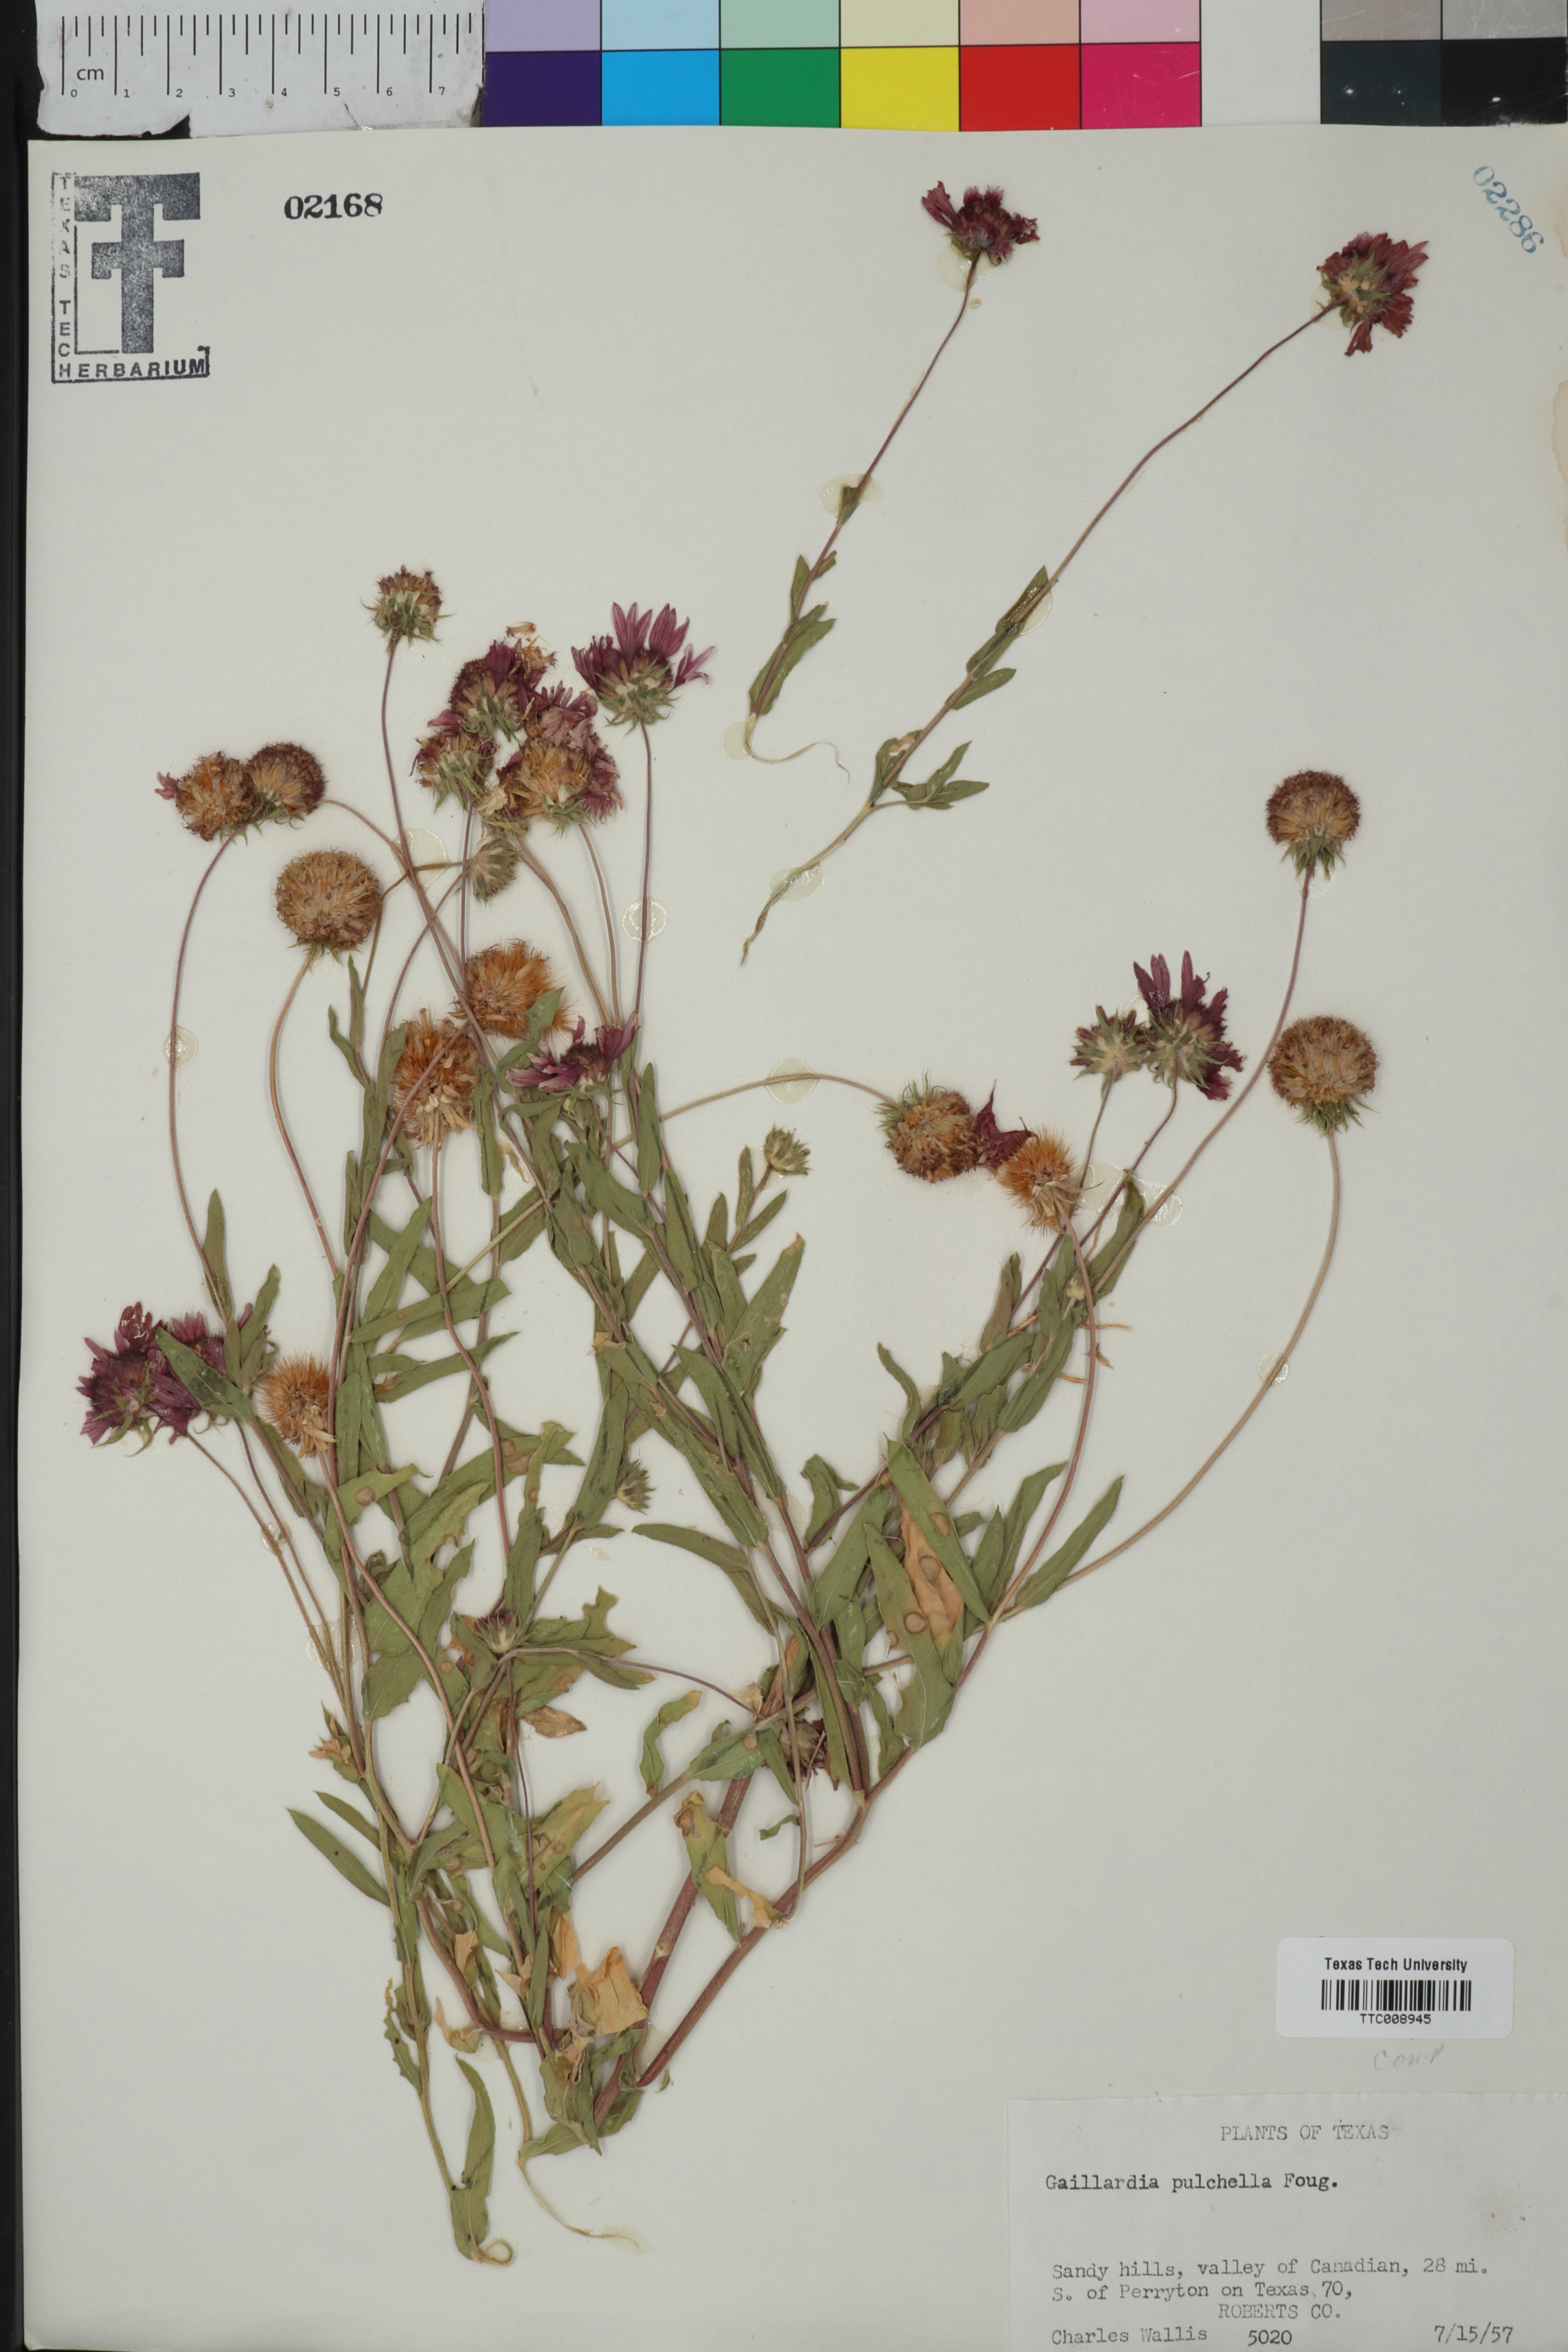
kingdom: Plantae
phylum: Tracheophyta
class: Magnoliopsida
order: Asterales
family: Asteraceae
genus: Gaillardia
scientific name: Gaillardia pulchella
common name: Firewheel
